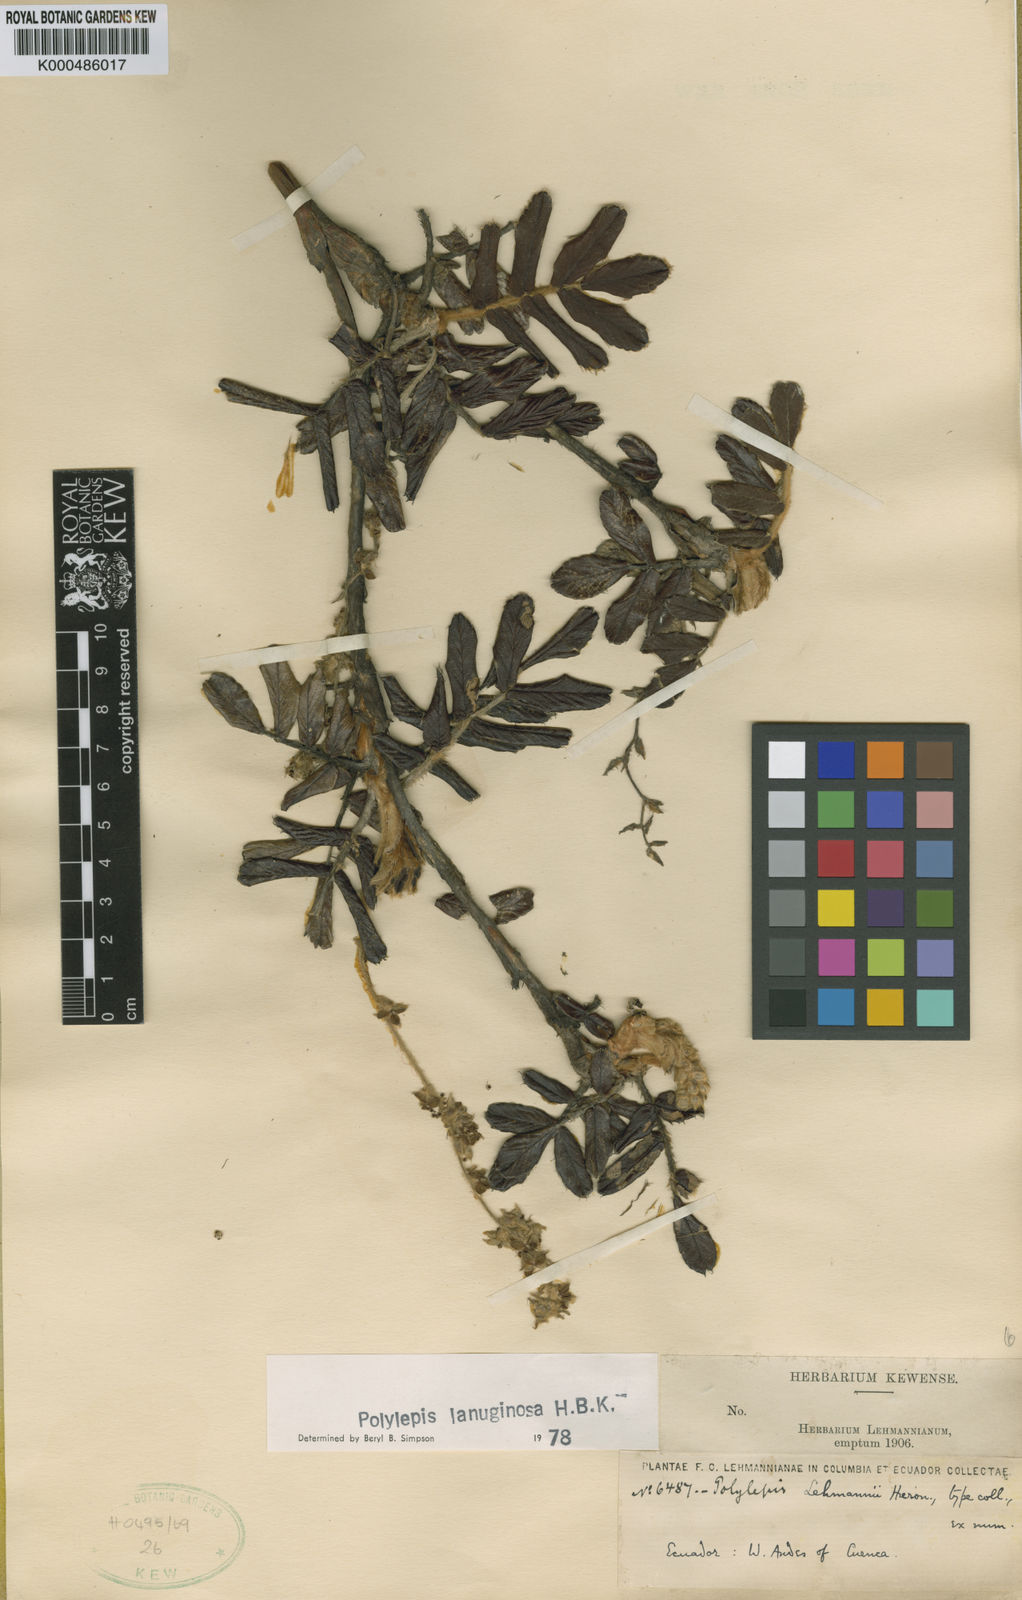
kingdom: Plantae
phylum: Tracheophyta
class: Magnoliopsida
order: Rosales
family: Rosaceae
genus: Polylepis
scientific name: Polylepis lanuginosa
